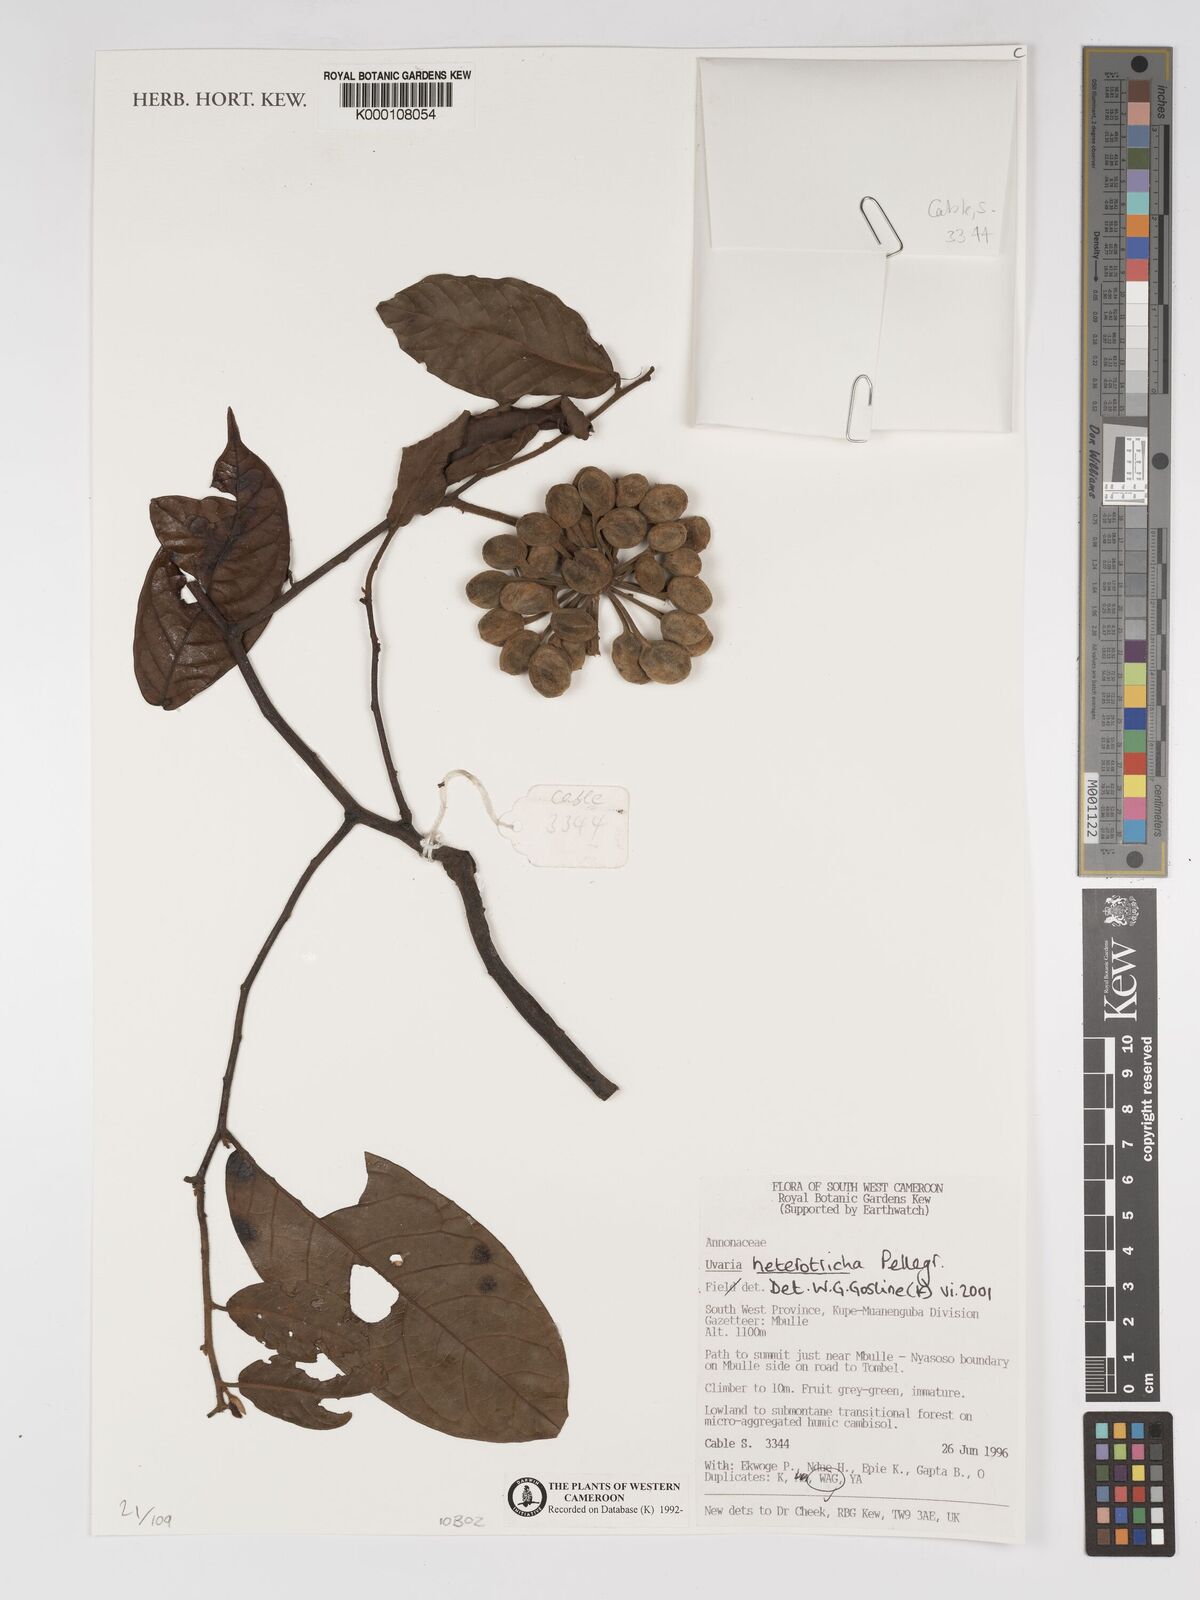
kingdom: Plantae
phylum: Tracheophyta
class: Magnoliopsida
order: Magnoliales
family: Annonaceae
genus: Uvaria
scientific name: Uvaria heterotricha
